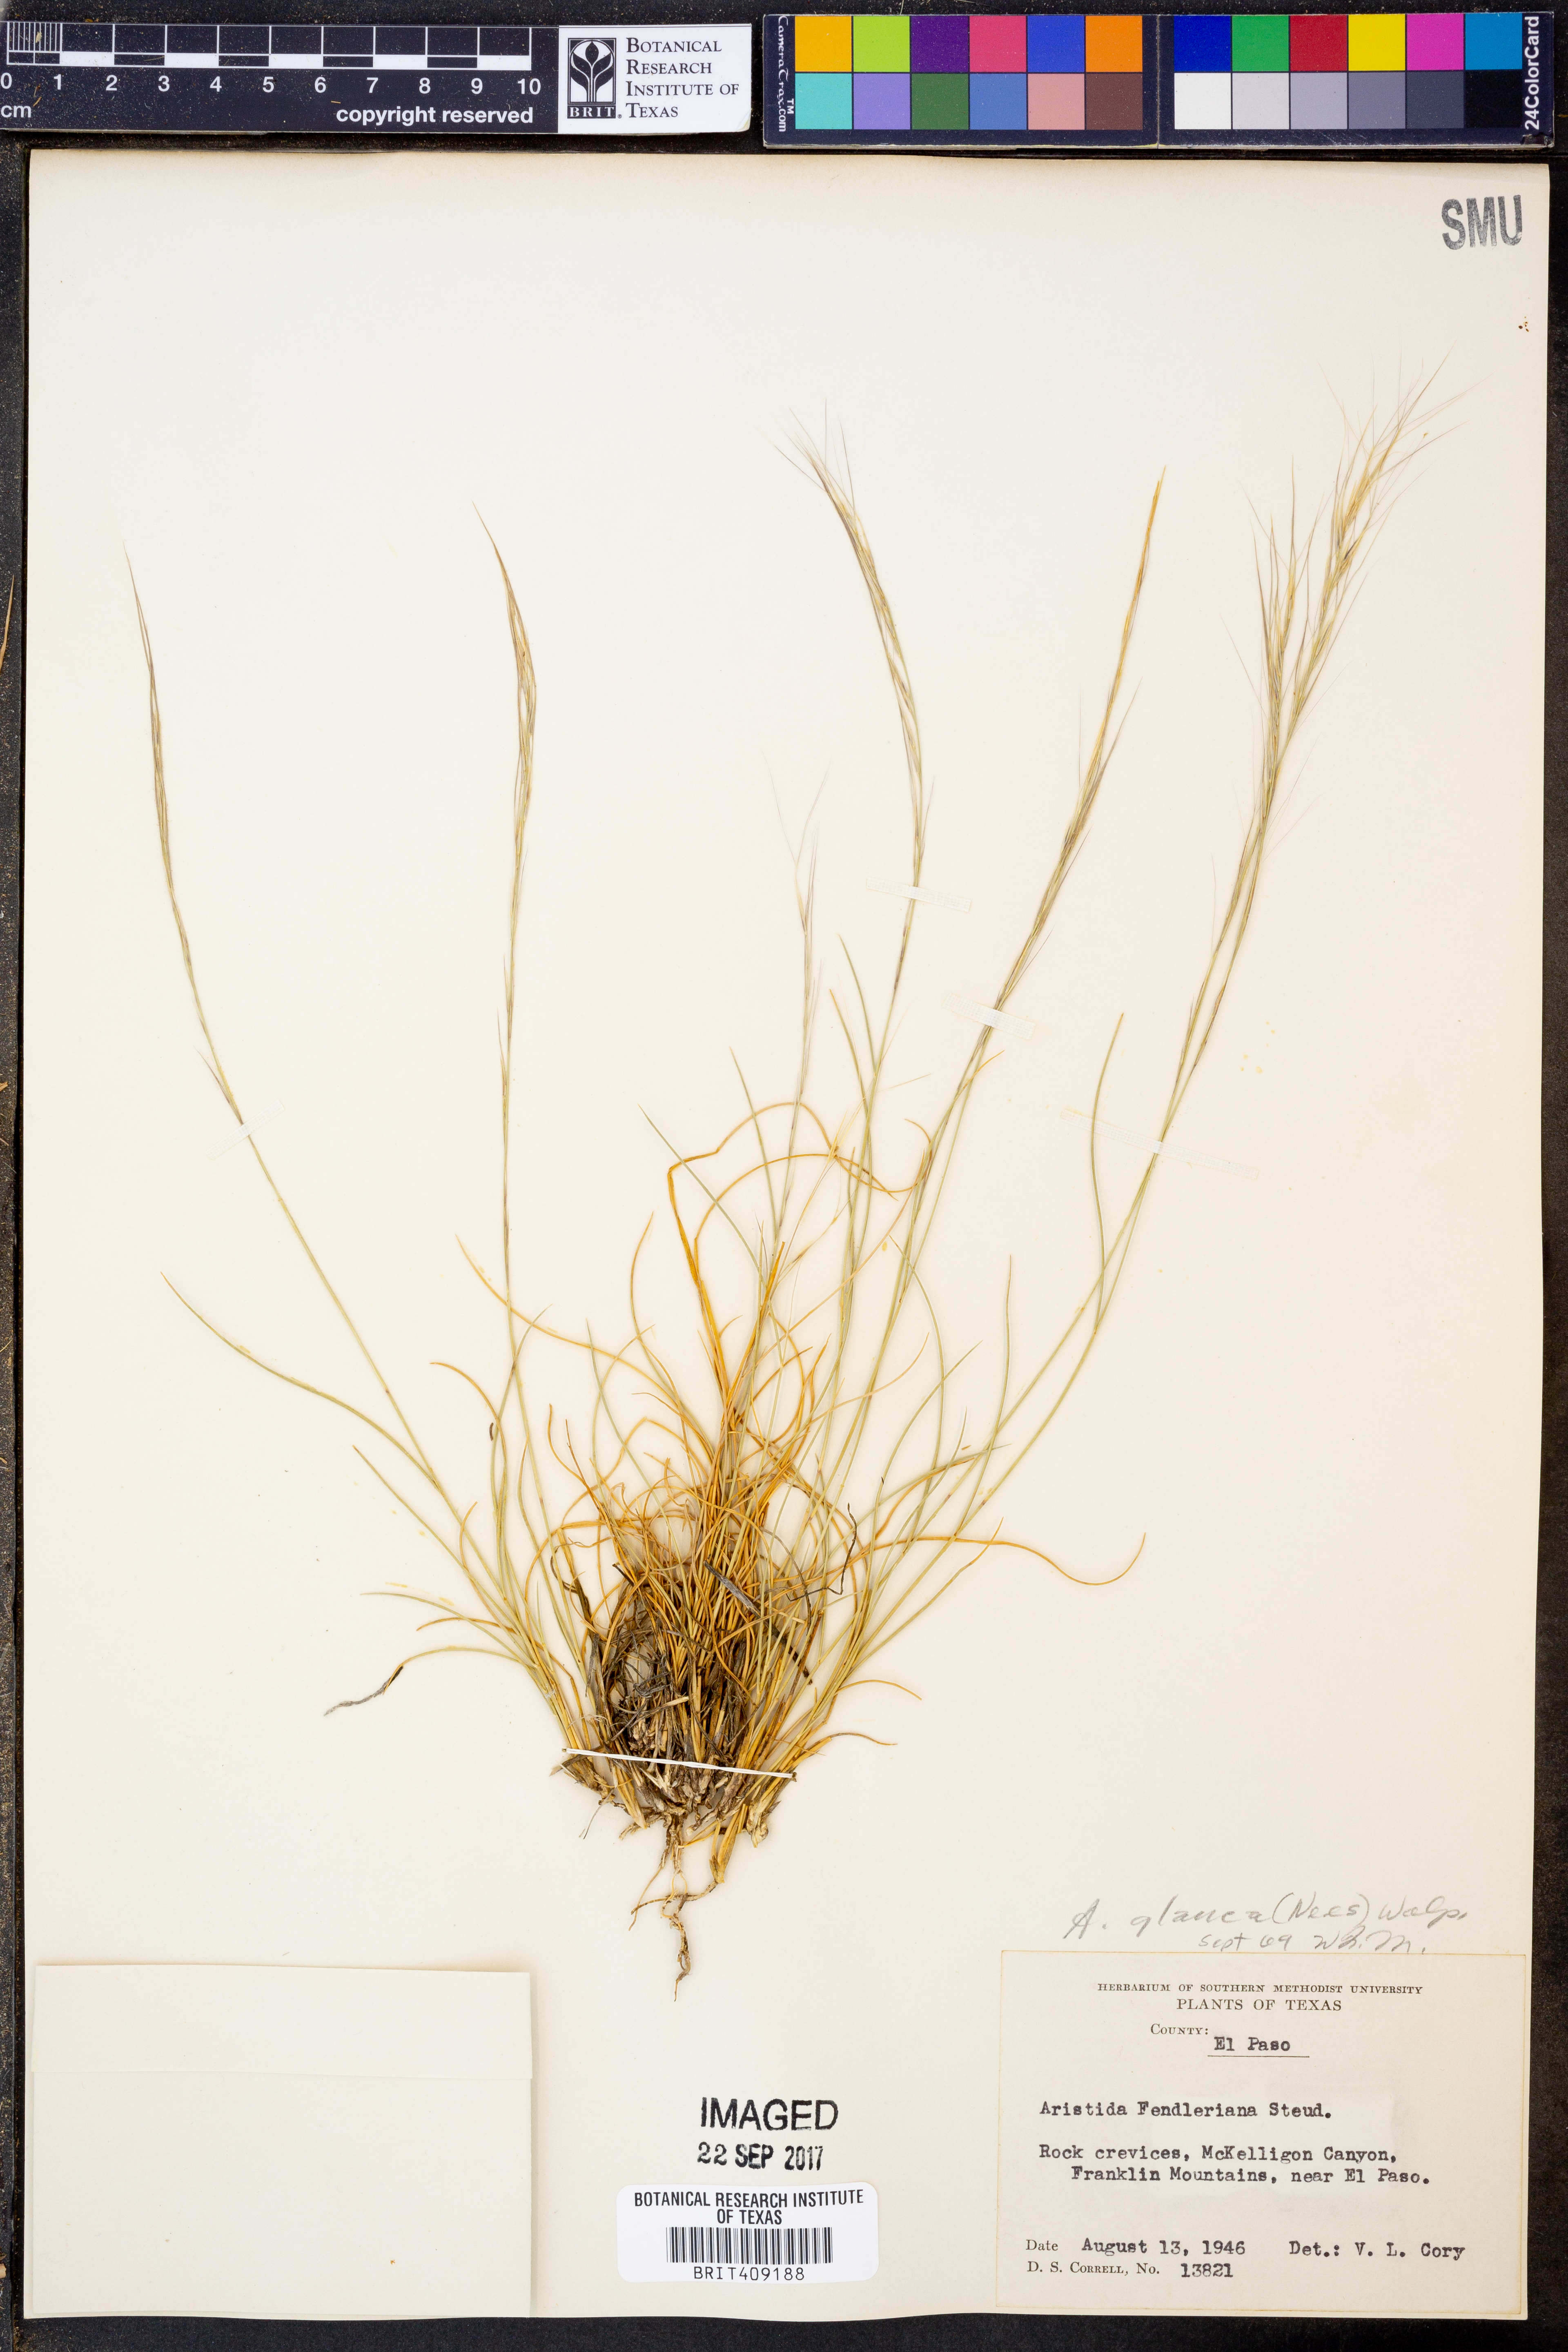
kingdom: Plantae
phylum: Tracheophyta
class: Liliopsida
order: Poales
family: Poaceae
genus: Aristida
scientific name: Aristida glauca
